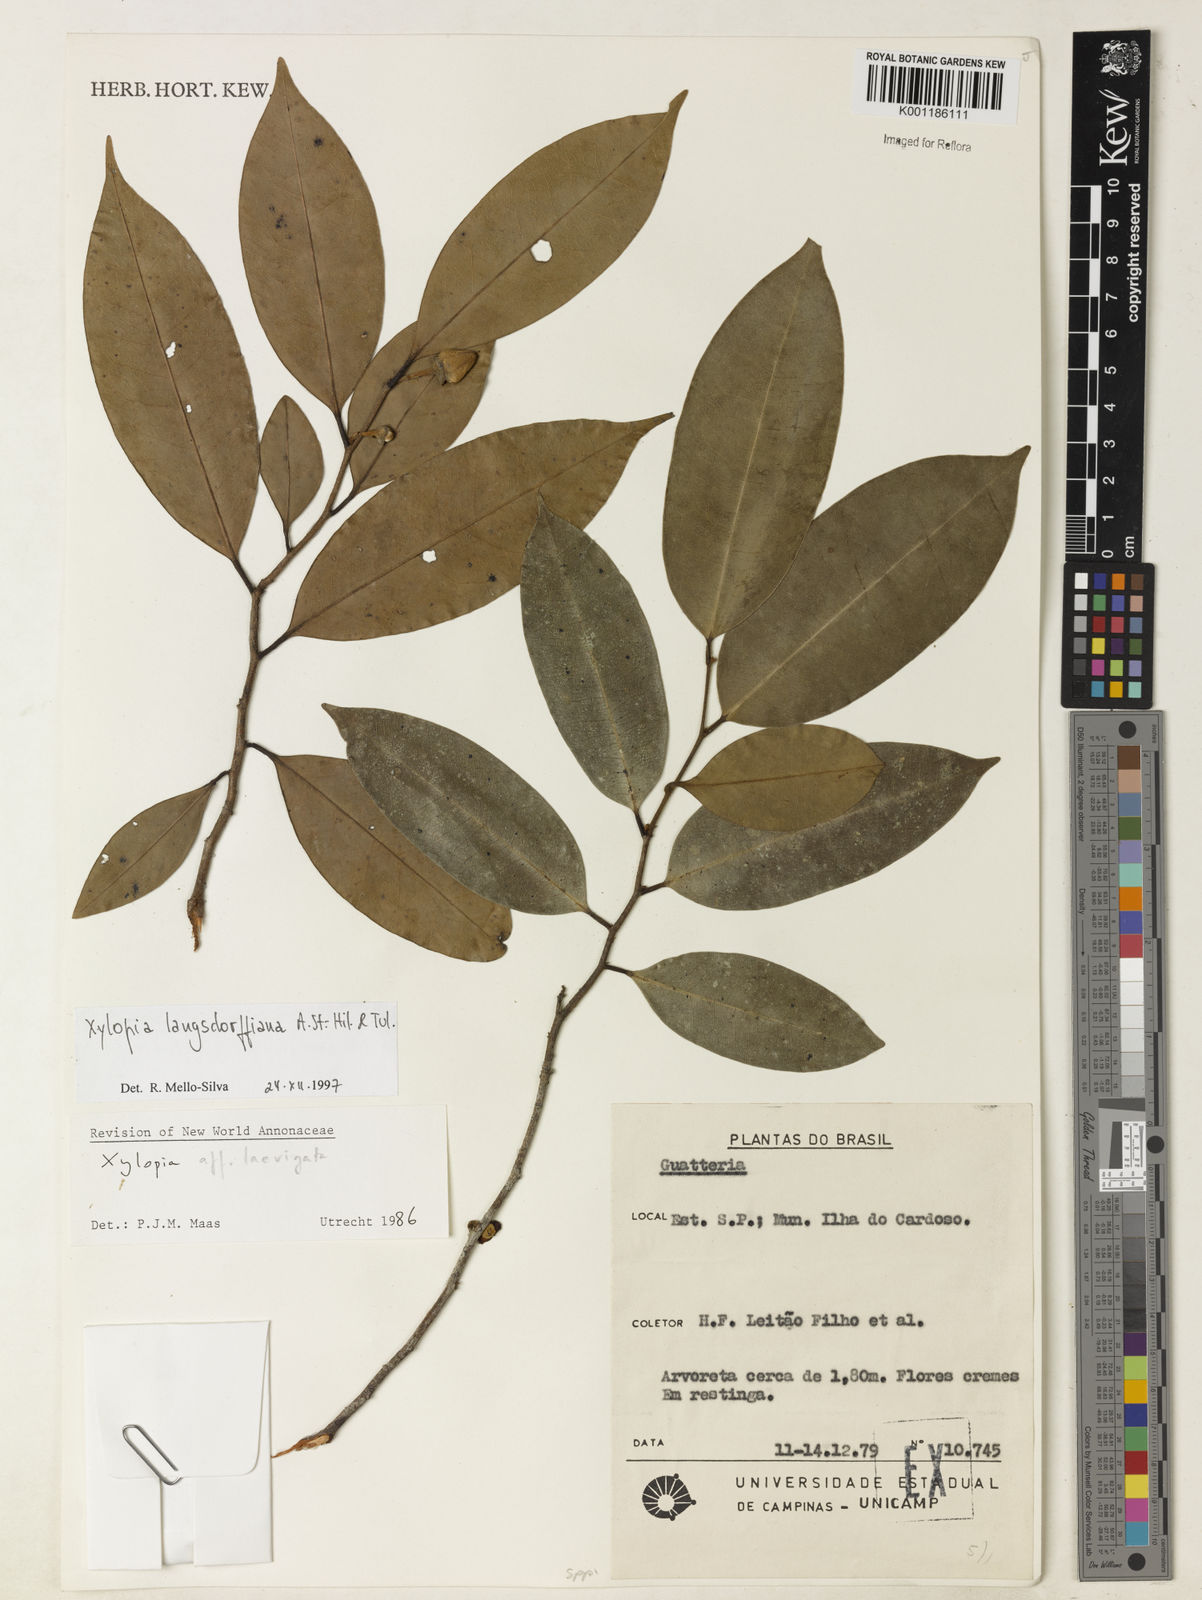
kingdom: Plantae
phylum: Tracheophyta
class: Magnoliopsida
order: Magnoliales
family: Annonaceae
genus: Xylopia
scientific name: Xylopia langsdorfiana
